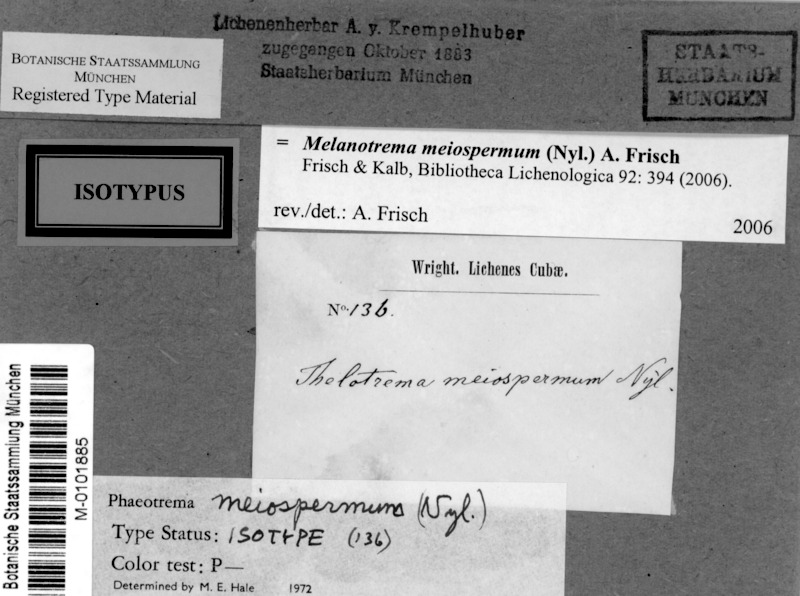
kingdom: Fungi
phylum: Ascomycota
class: Lecanoromycetes
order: Ostropales
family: Graphidaceae
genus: Melanotrema
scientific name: Melanotrema meiospermum
